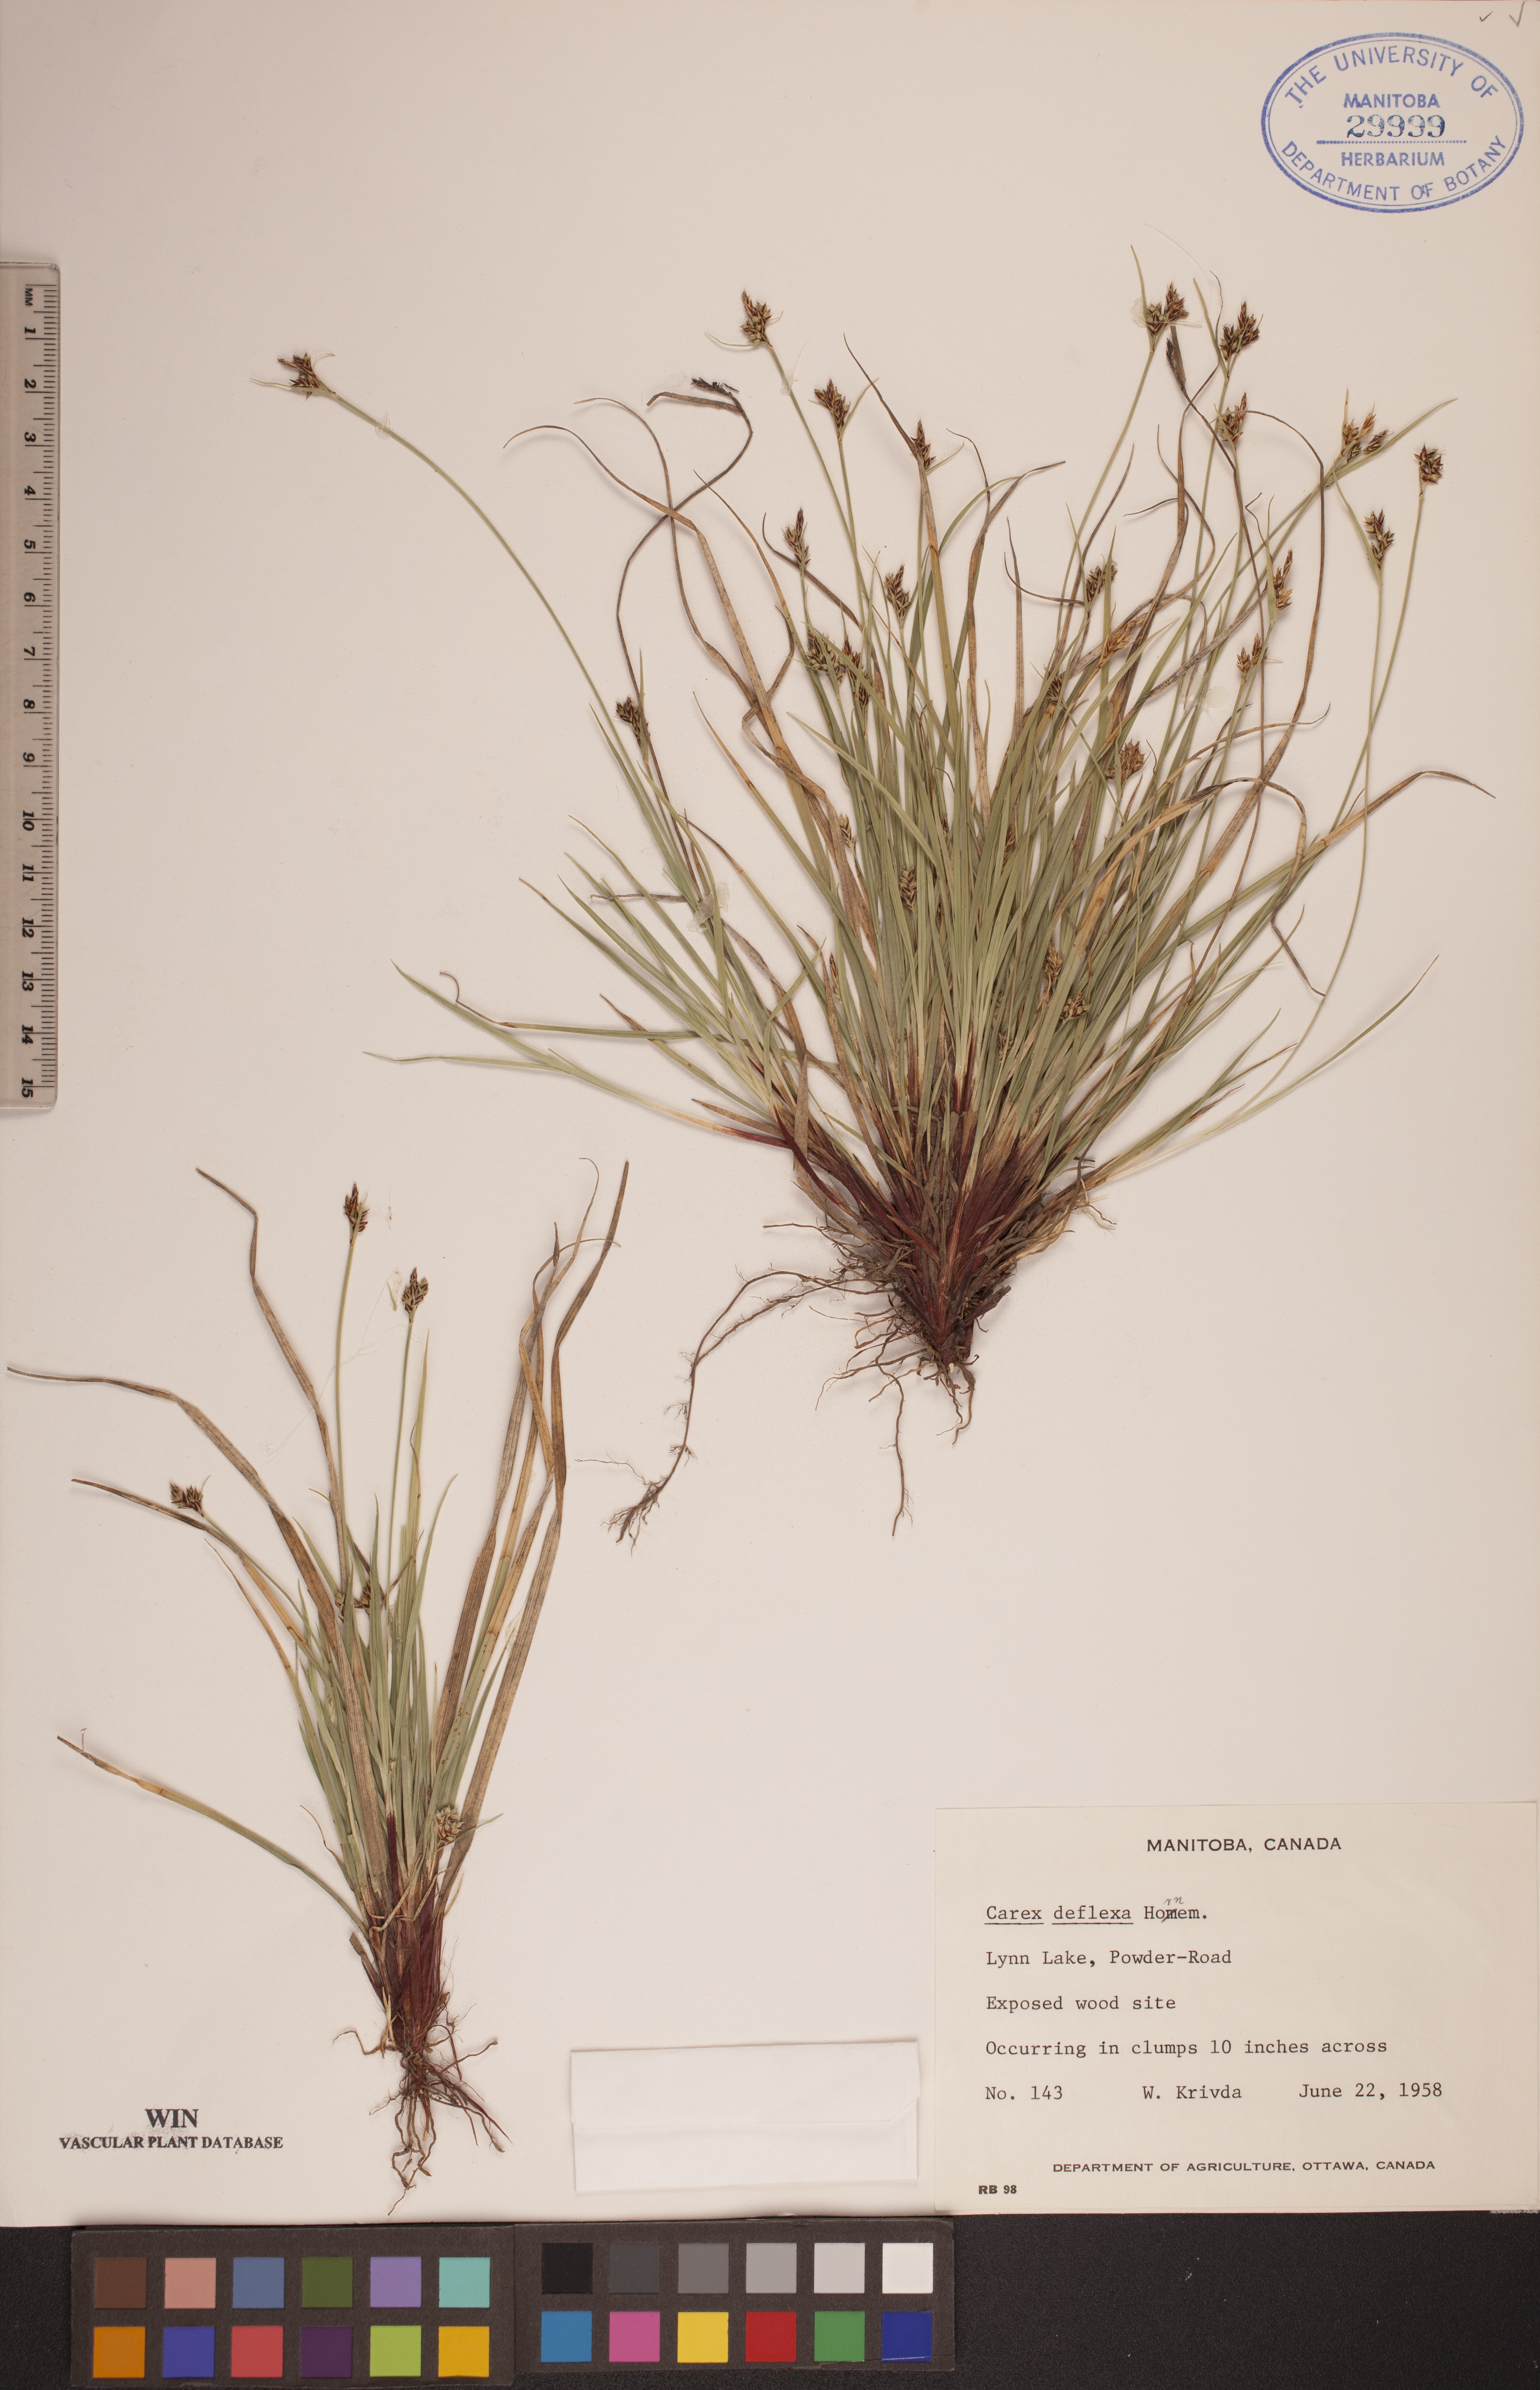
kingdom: Plantae
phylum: Tracheophyta
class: Liliopsida
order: Poales
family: Cyperaceae
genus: Carex
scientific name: Carex deflexa
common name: Bent northern sedge
